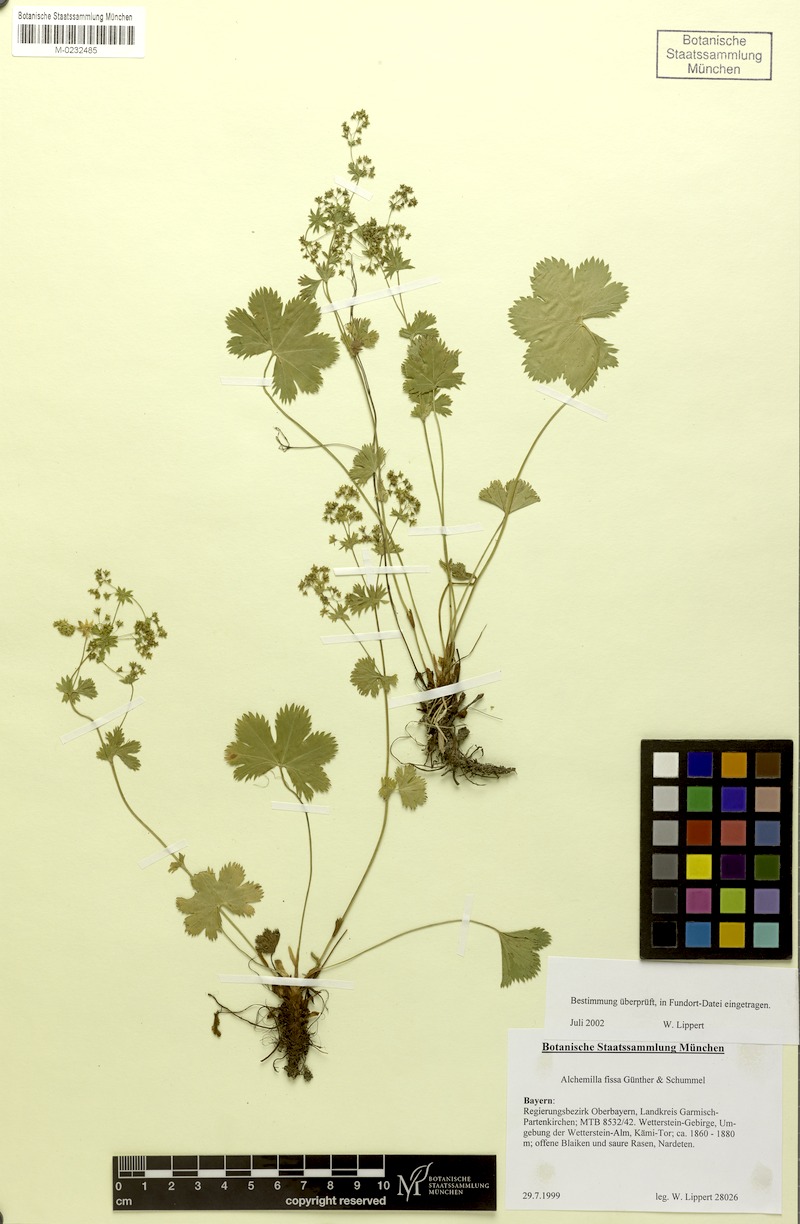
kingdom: Plantae
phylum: Tracheophyta
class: Magnoliopsida
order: Rosales
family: Rosaceae
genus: Alchemilla
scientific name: Alchemilla fissa
